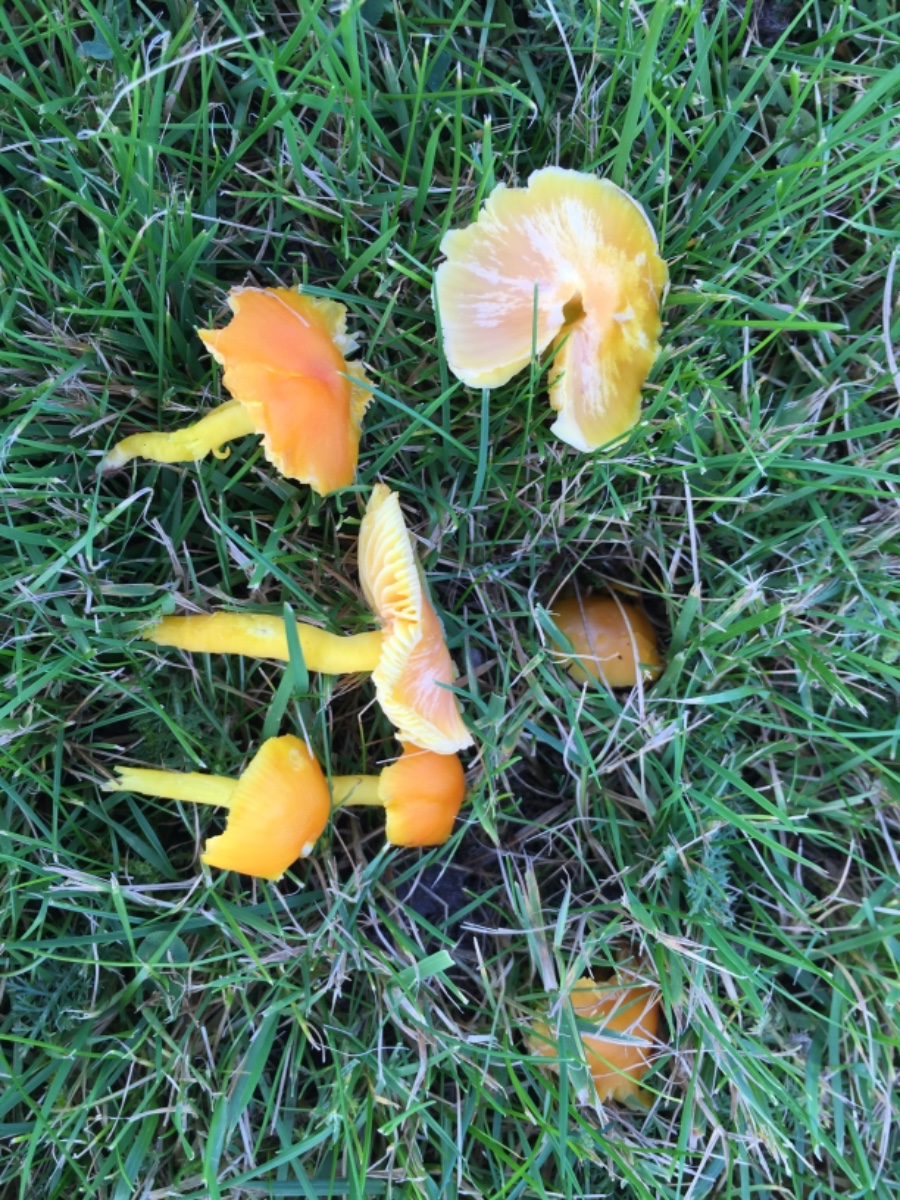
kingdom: Fungi
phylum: Basidiomycota
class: Agaricomycetes
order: Agaricales
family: Hygrophoraceae
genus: Hygrocybe
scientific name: Hygrocybe ceracea
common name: voksgul vokshat
